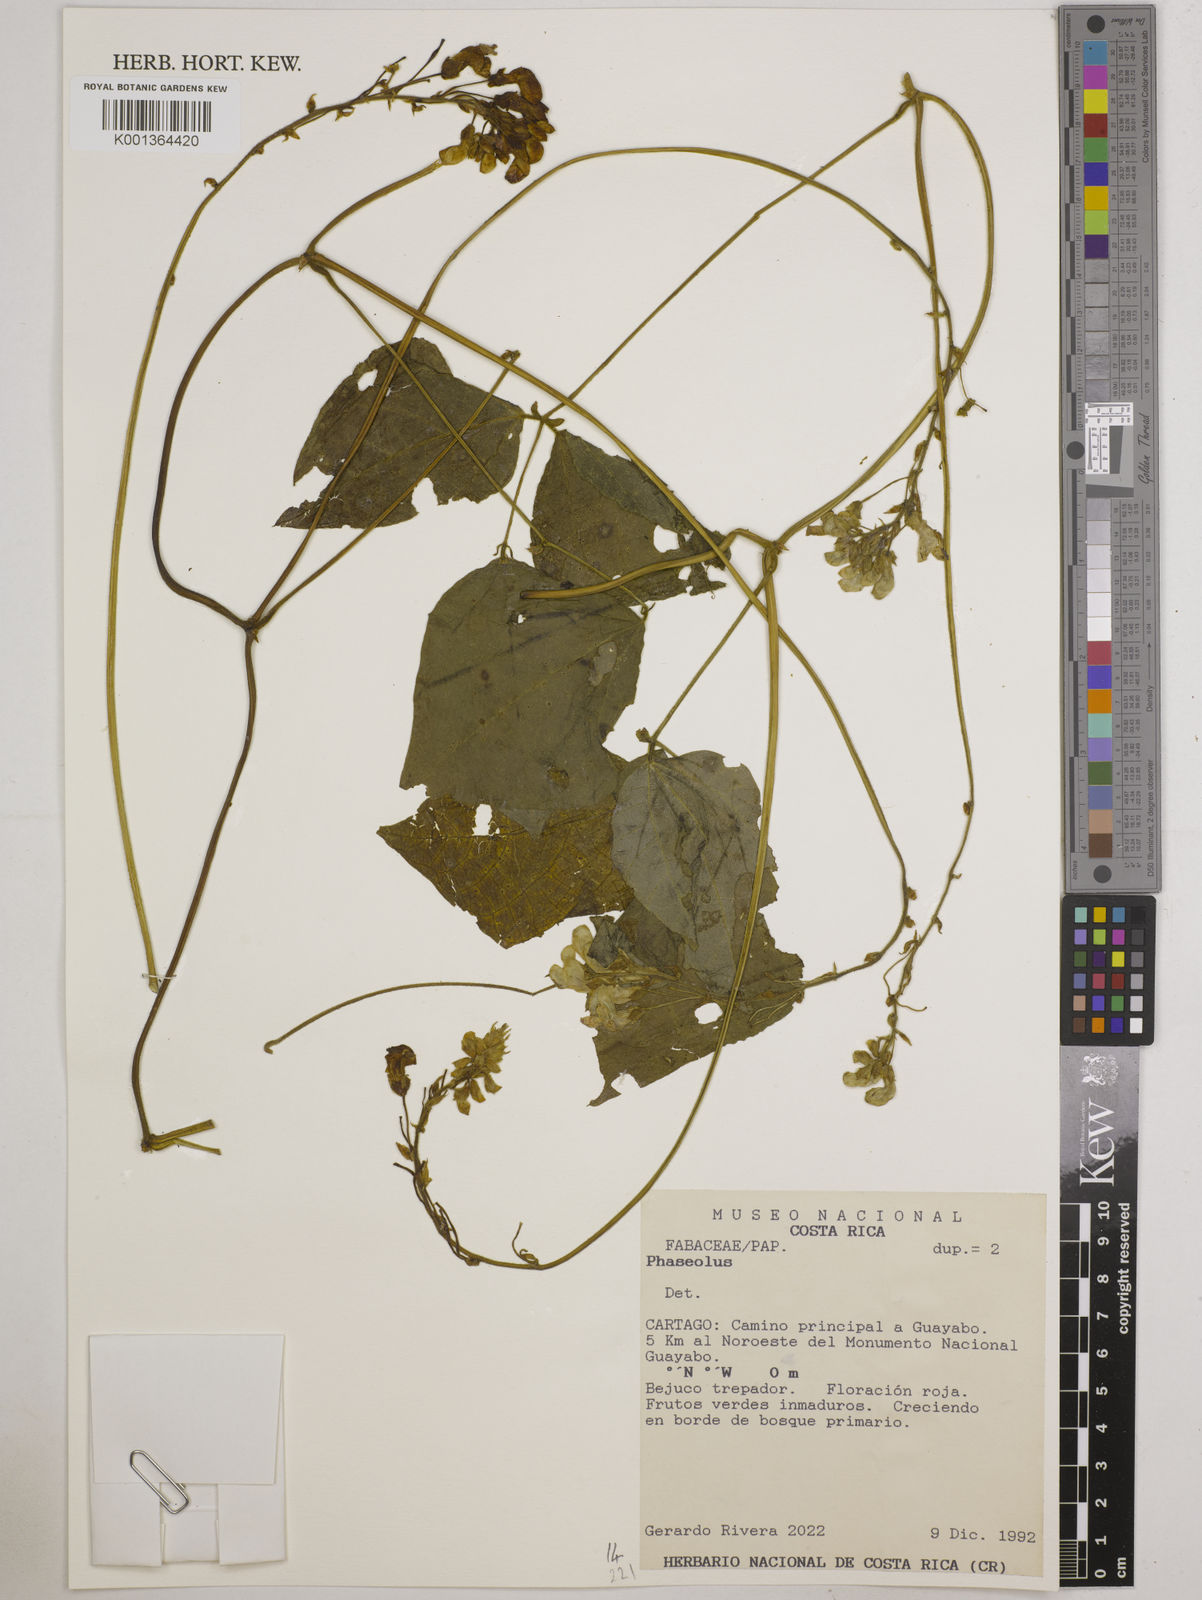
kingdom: Plantae
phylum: Tracheophyta
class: Magnoliopsida
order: Fabales
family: Fabaceae
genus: Phaseolus
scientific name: Phaseolus
